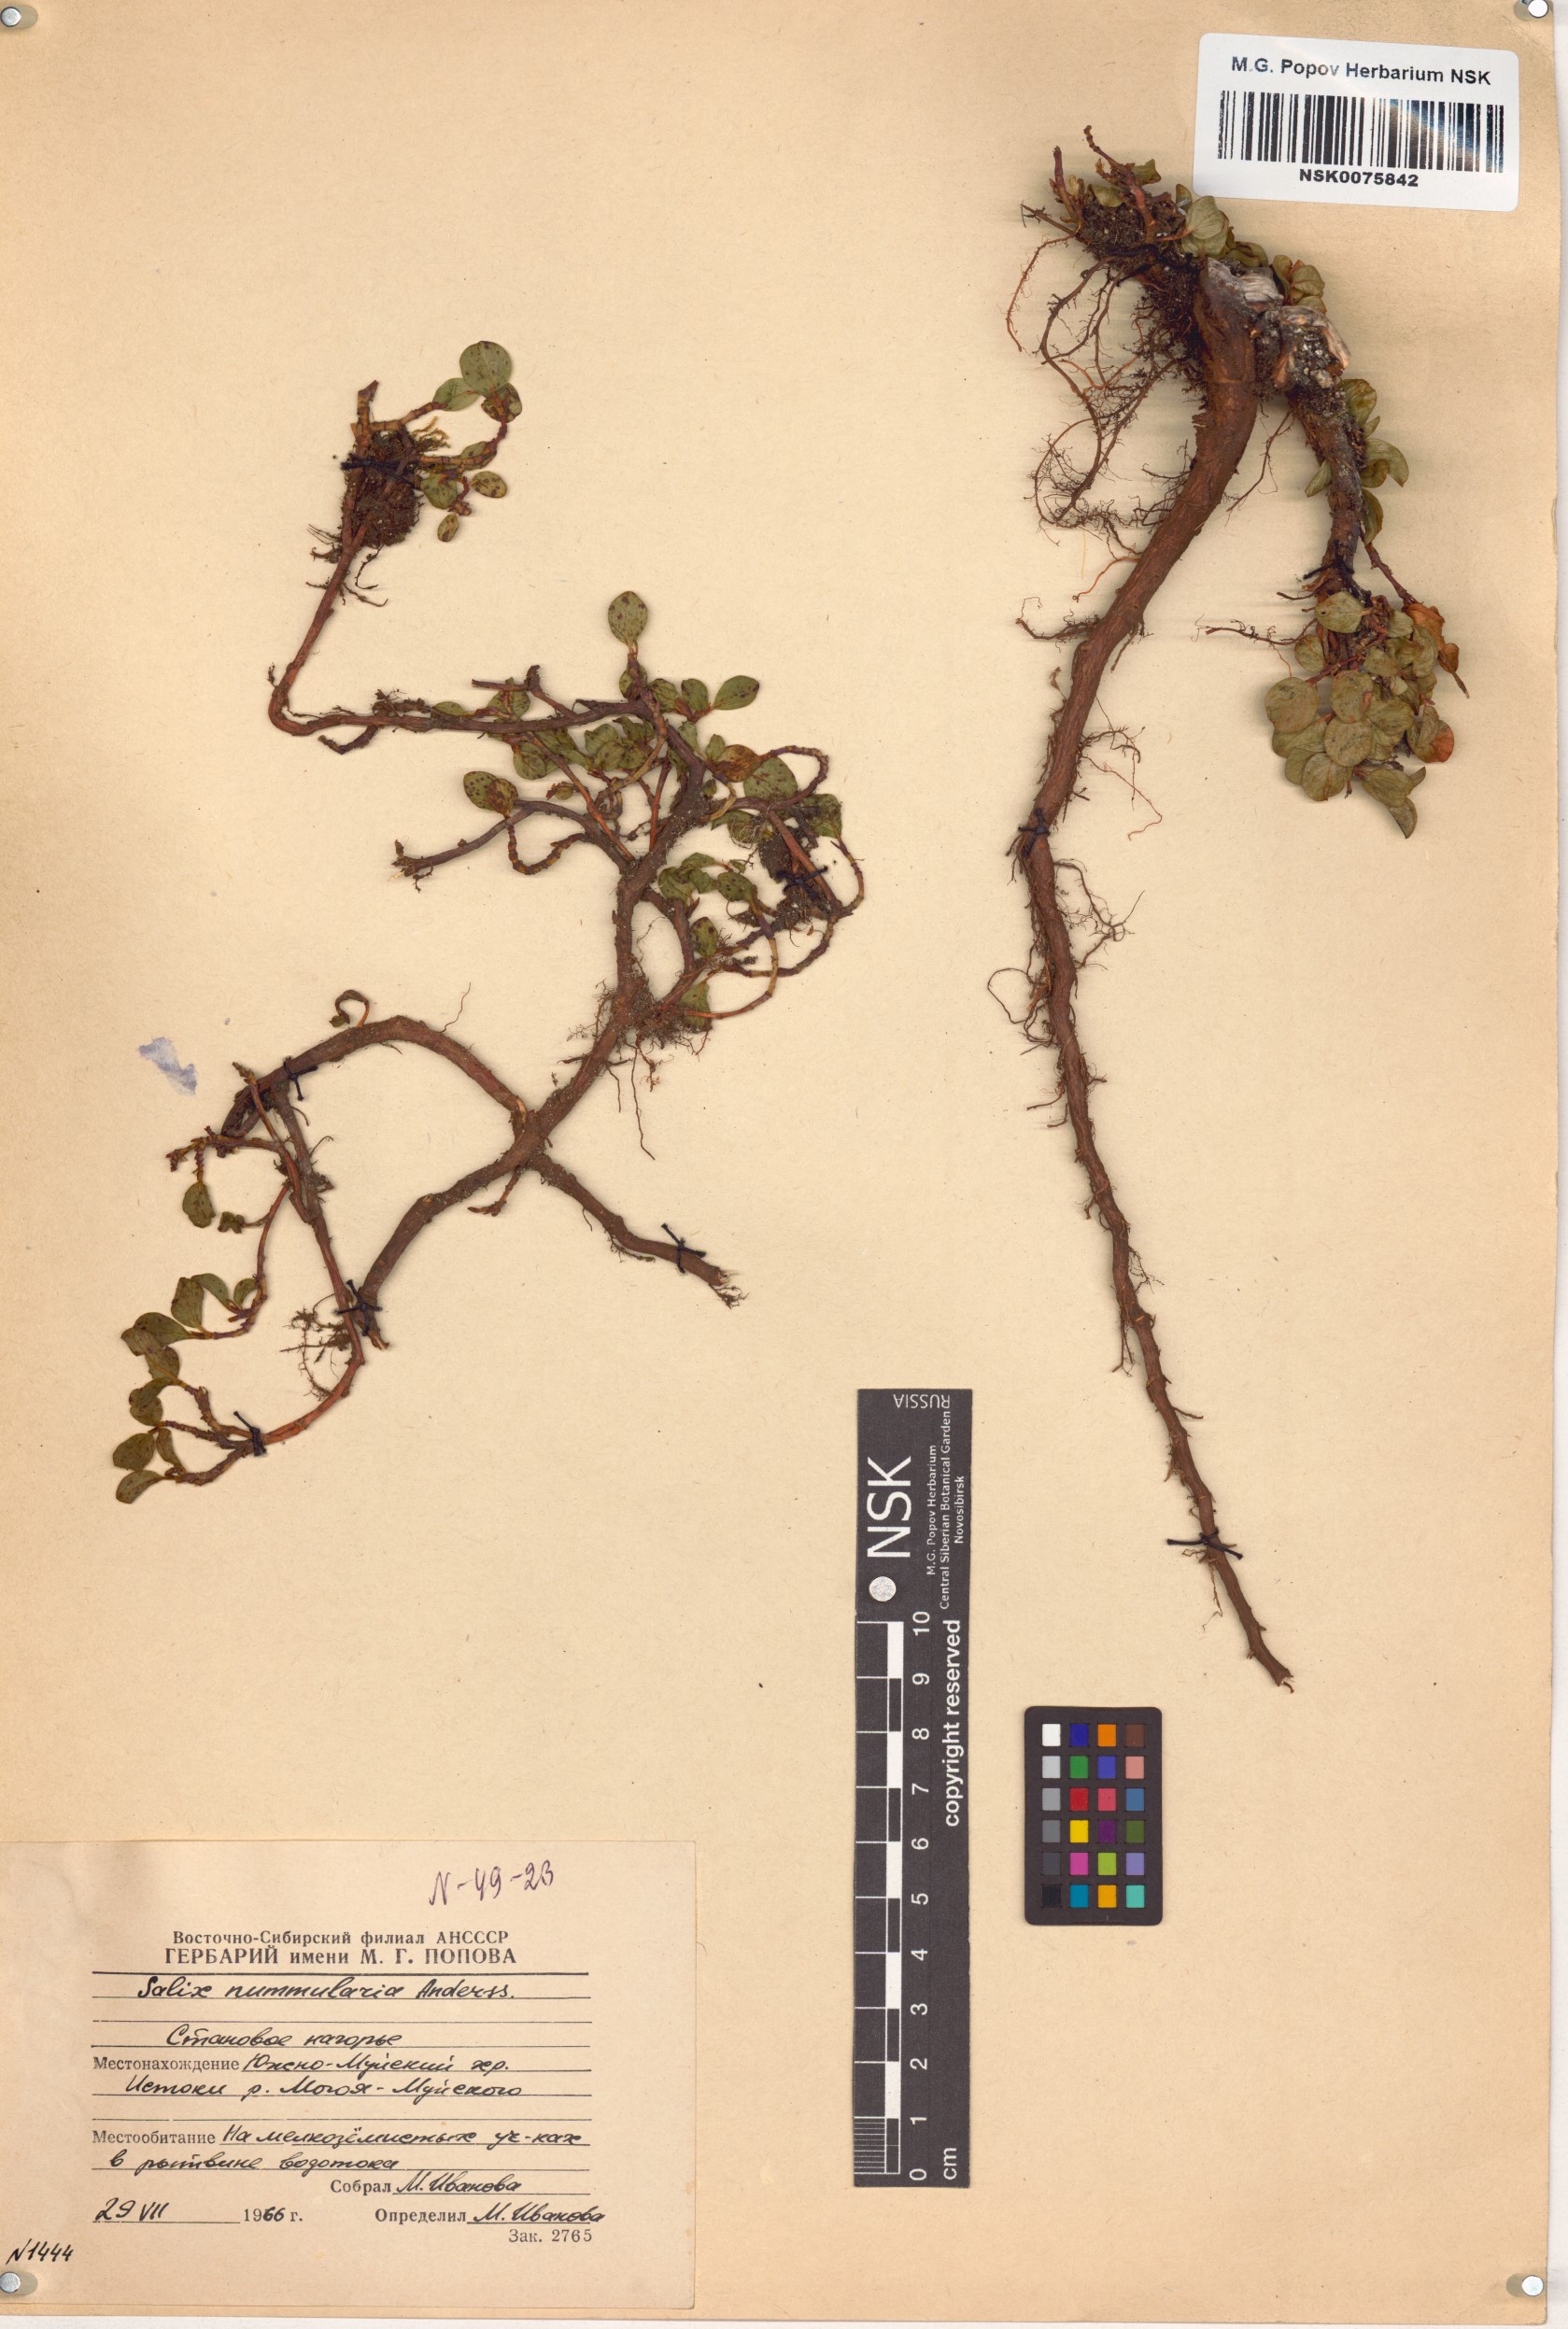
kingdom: Plantae
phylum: Tracheophyta
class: Magnoliopsida
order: Malpighiales
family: Salicaceae
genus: Salix
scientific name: Salix nummularia
